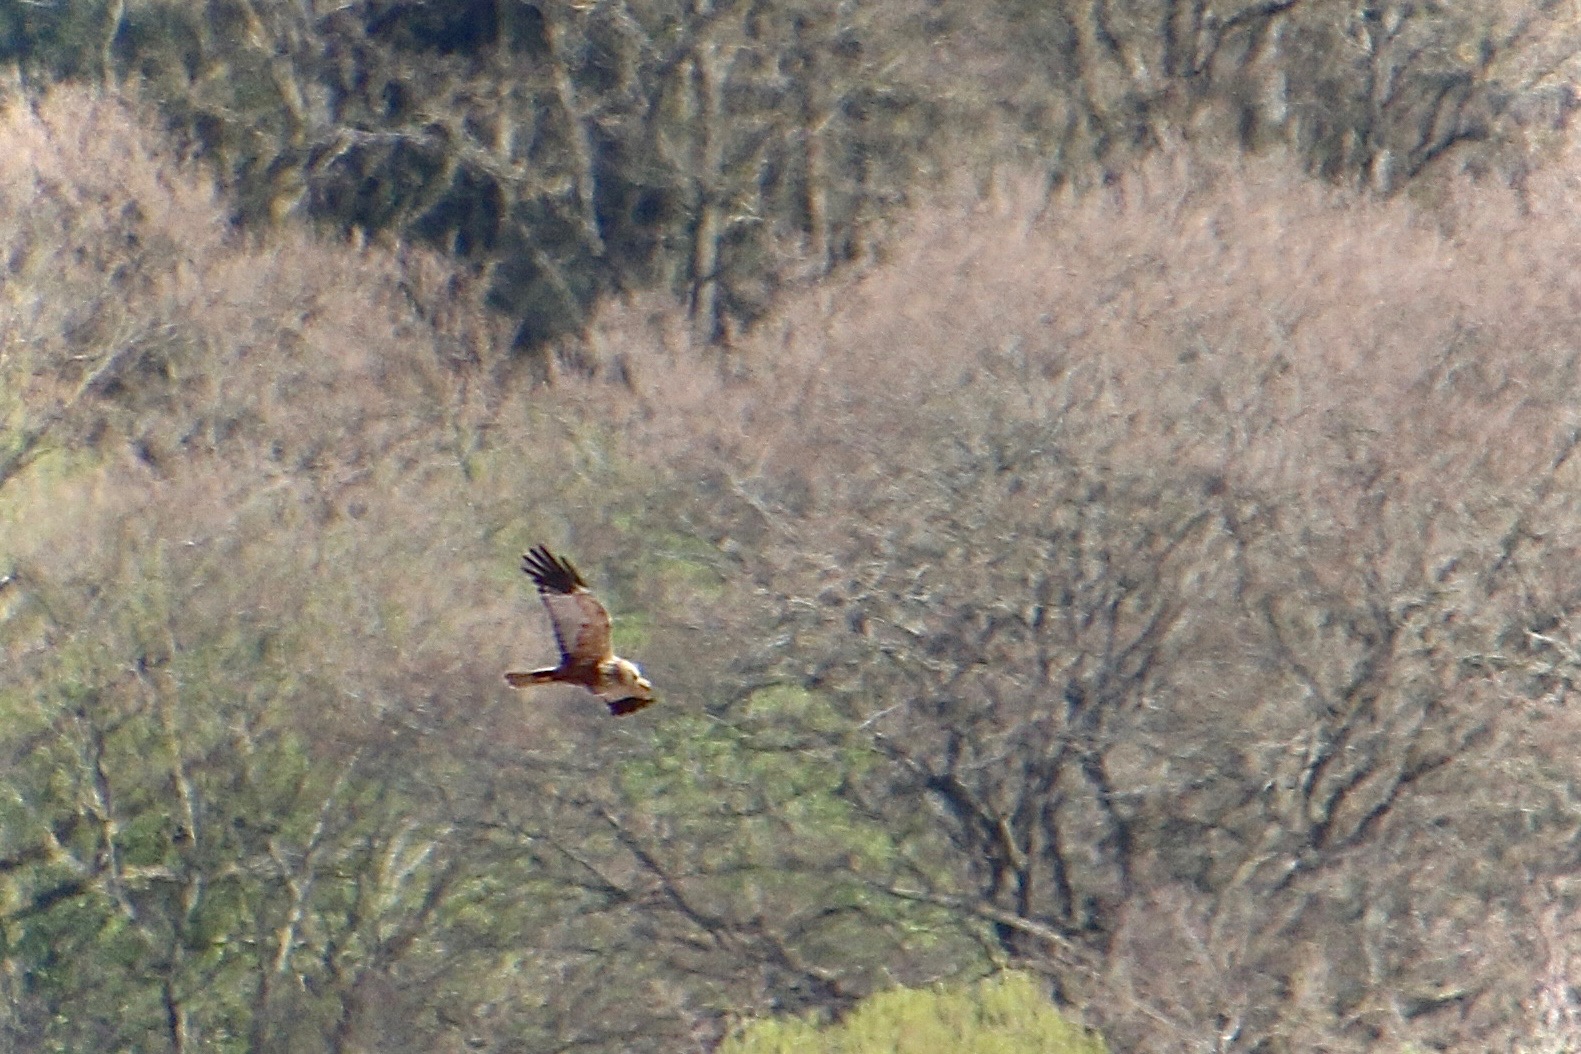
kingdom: Animalia
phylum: Chordata
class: Aves
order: Accipitriformes
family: Accipitridae
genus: Circus
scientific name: Circus aeruginosus
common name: Rørhøg
